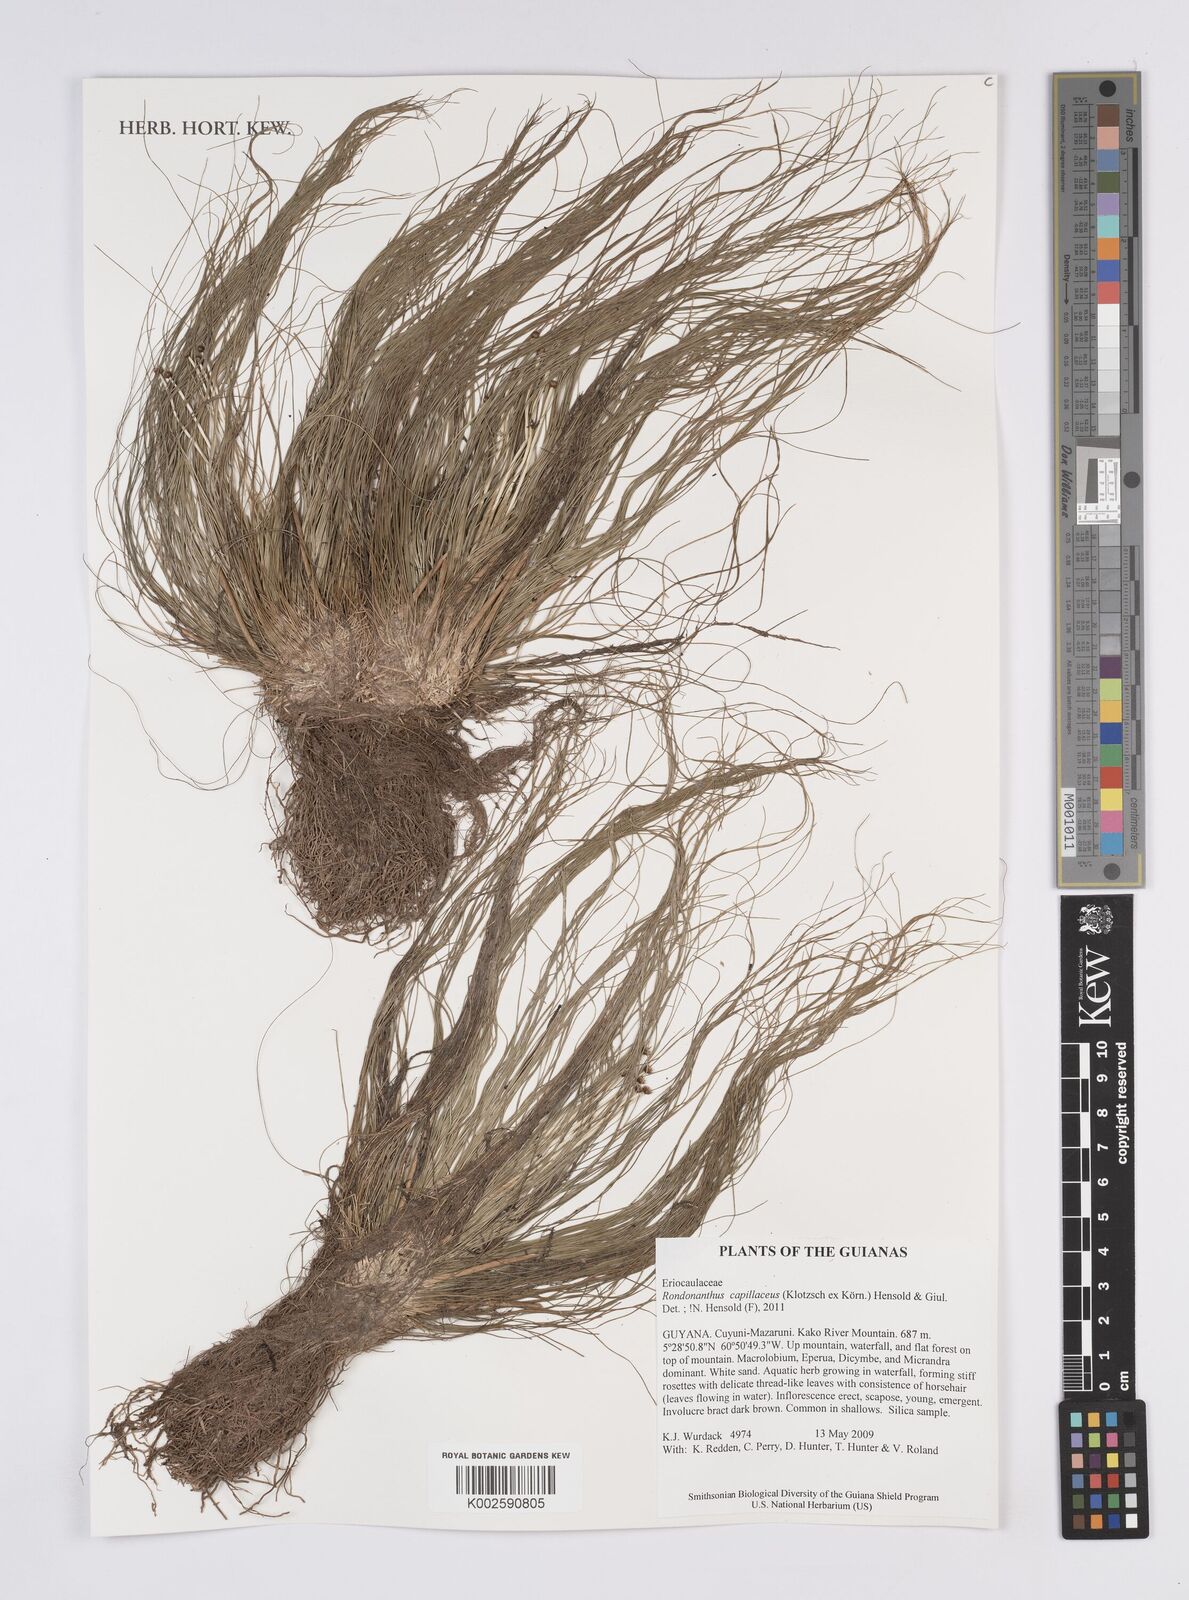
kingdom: Plantae
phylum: Tracheophyta
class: Liliopsida
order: Poales
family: Eriocaulaceae
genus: Rondonanthus
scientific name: Rondonanthus capillaceus
